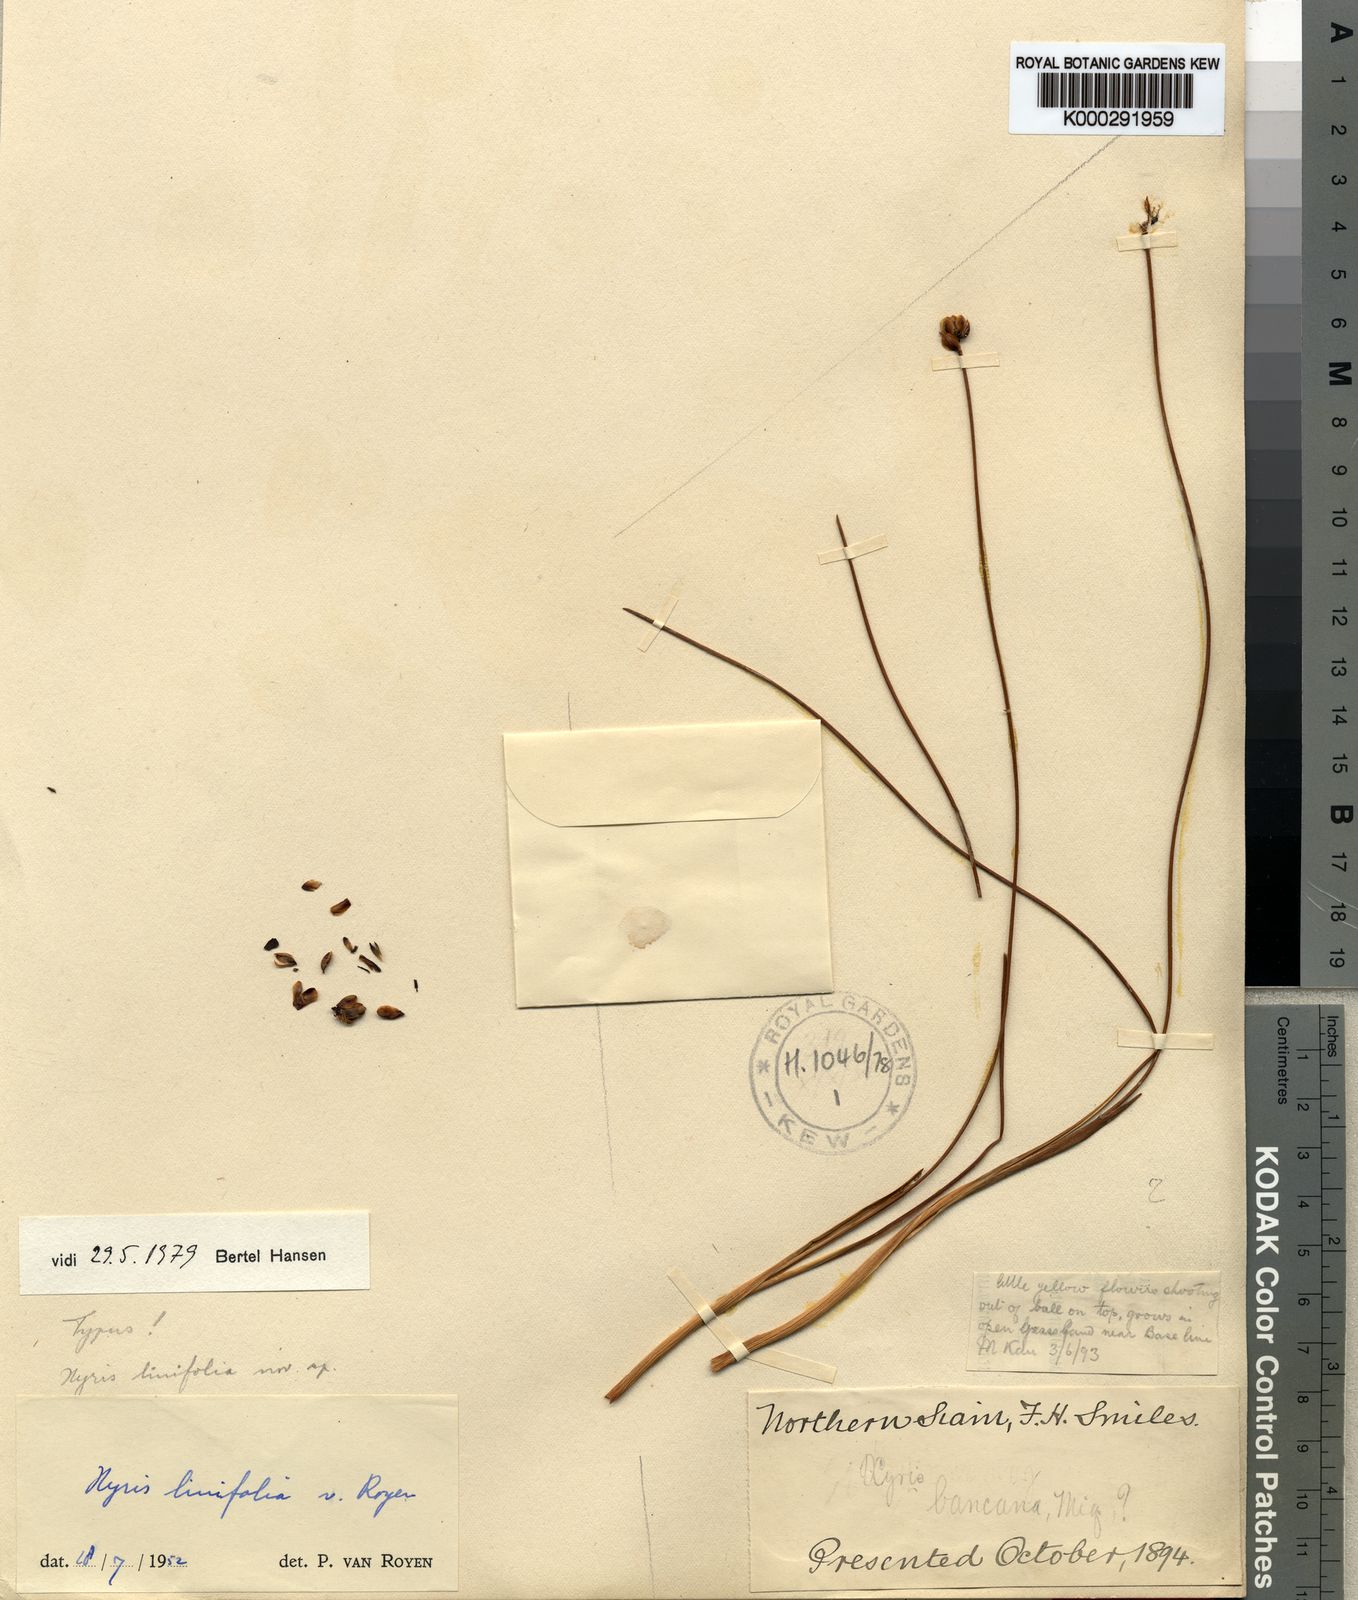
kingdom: Plantae
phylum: Tracheophyta
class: Liliopsida
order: Poales
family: Xyridaceae
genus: Xyris
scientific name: Xyris linifolia
